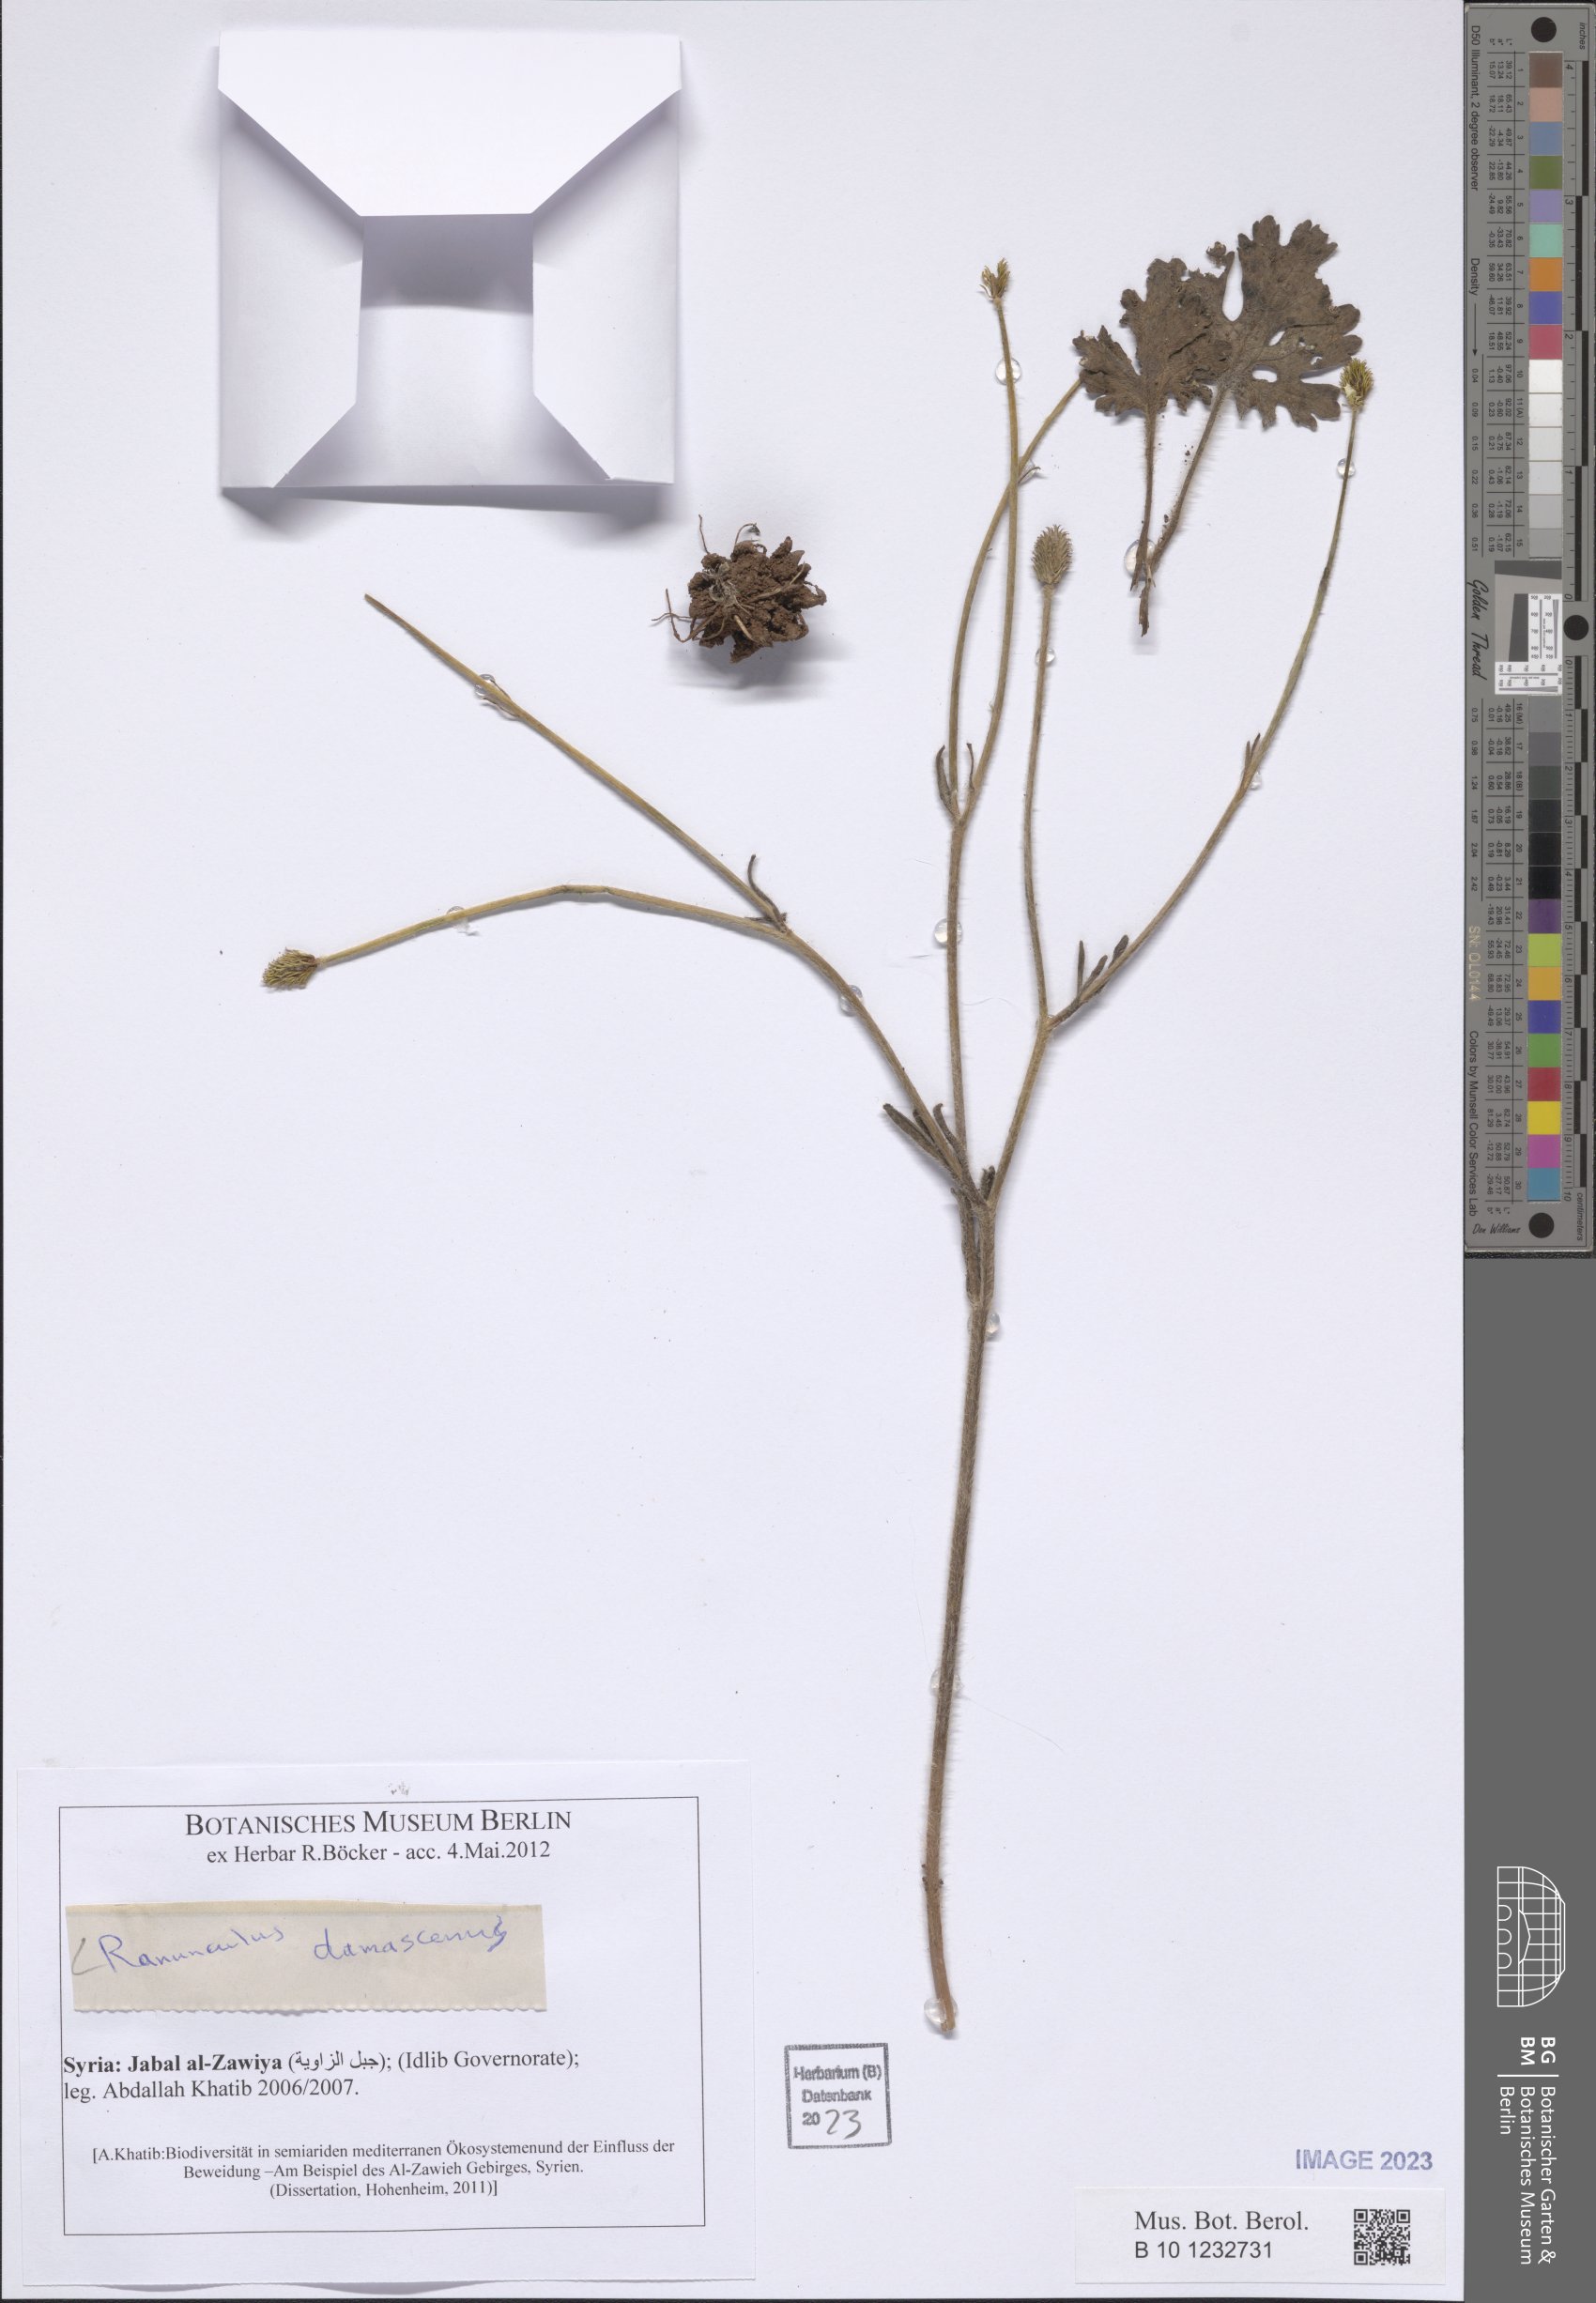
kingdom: Plantae
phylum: Tracheophyta
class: Magnoliopsida
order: Ranunculales
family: Ranunculaceae
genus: Ranunculus
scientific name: Ranunculus damascenus
